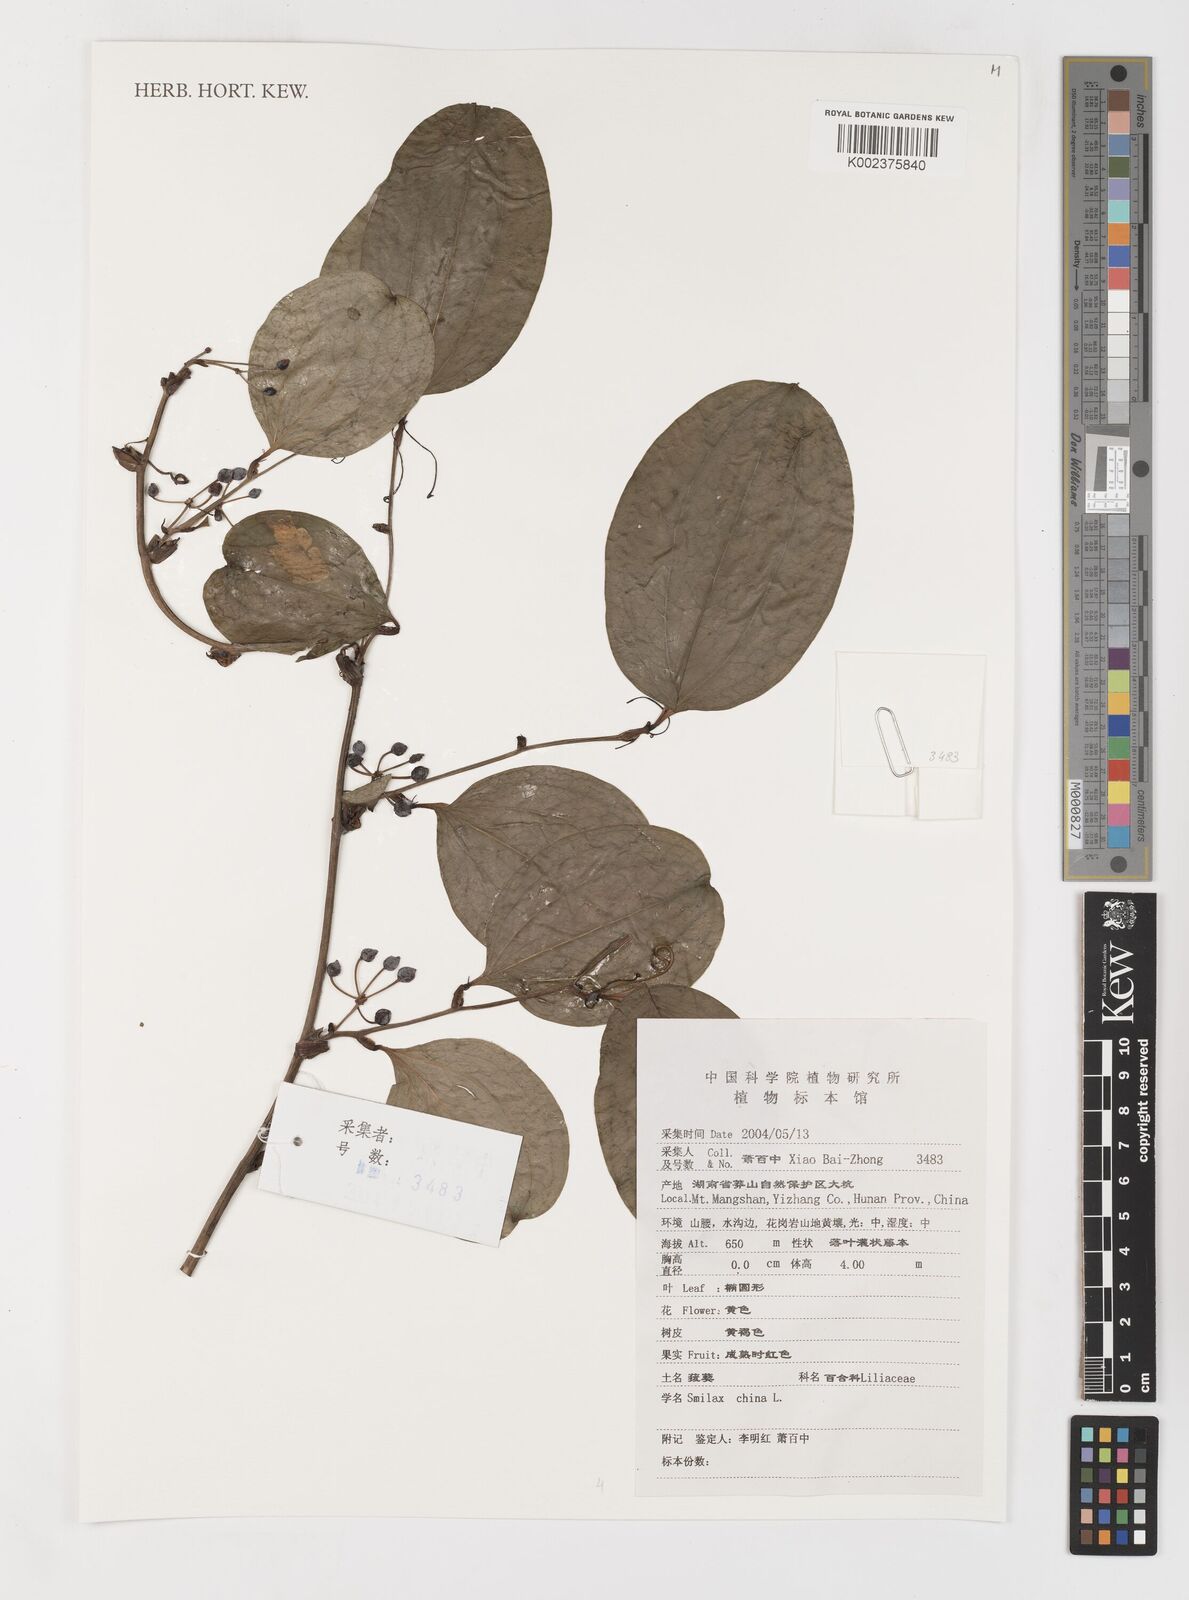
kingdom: Plantae
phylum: Tracheophyta
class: Liliopsida
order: Liliales
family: Smilacaceae
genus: Smilax
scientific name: Smilax china
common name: Chinaroot
